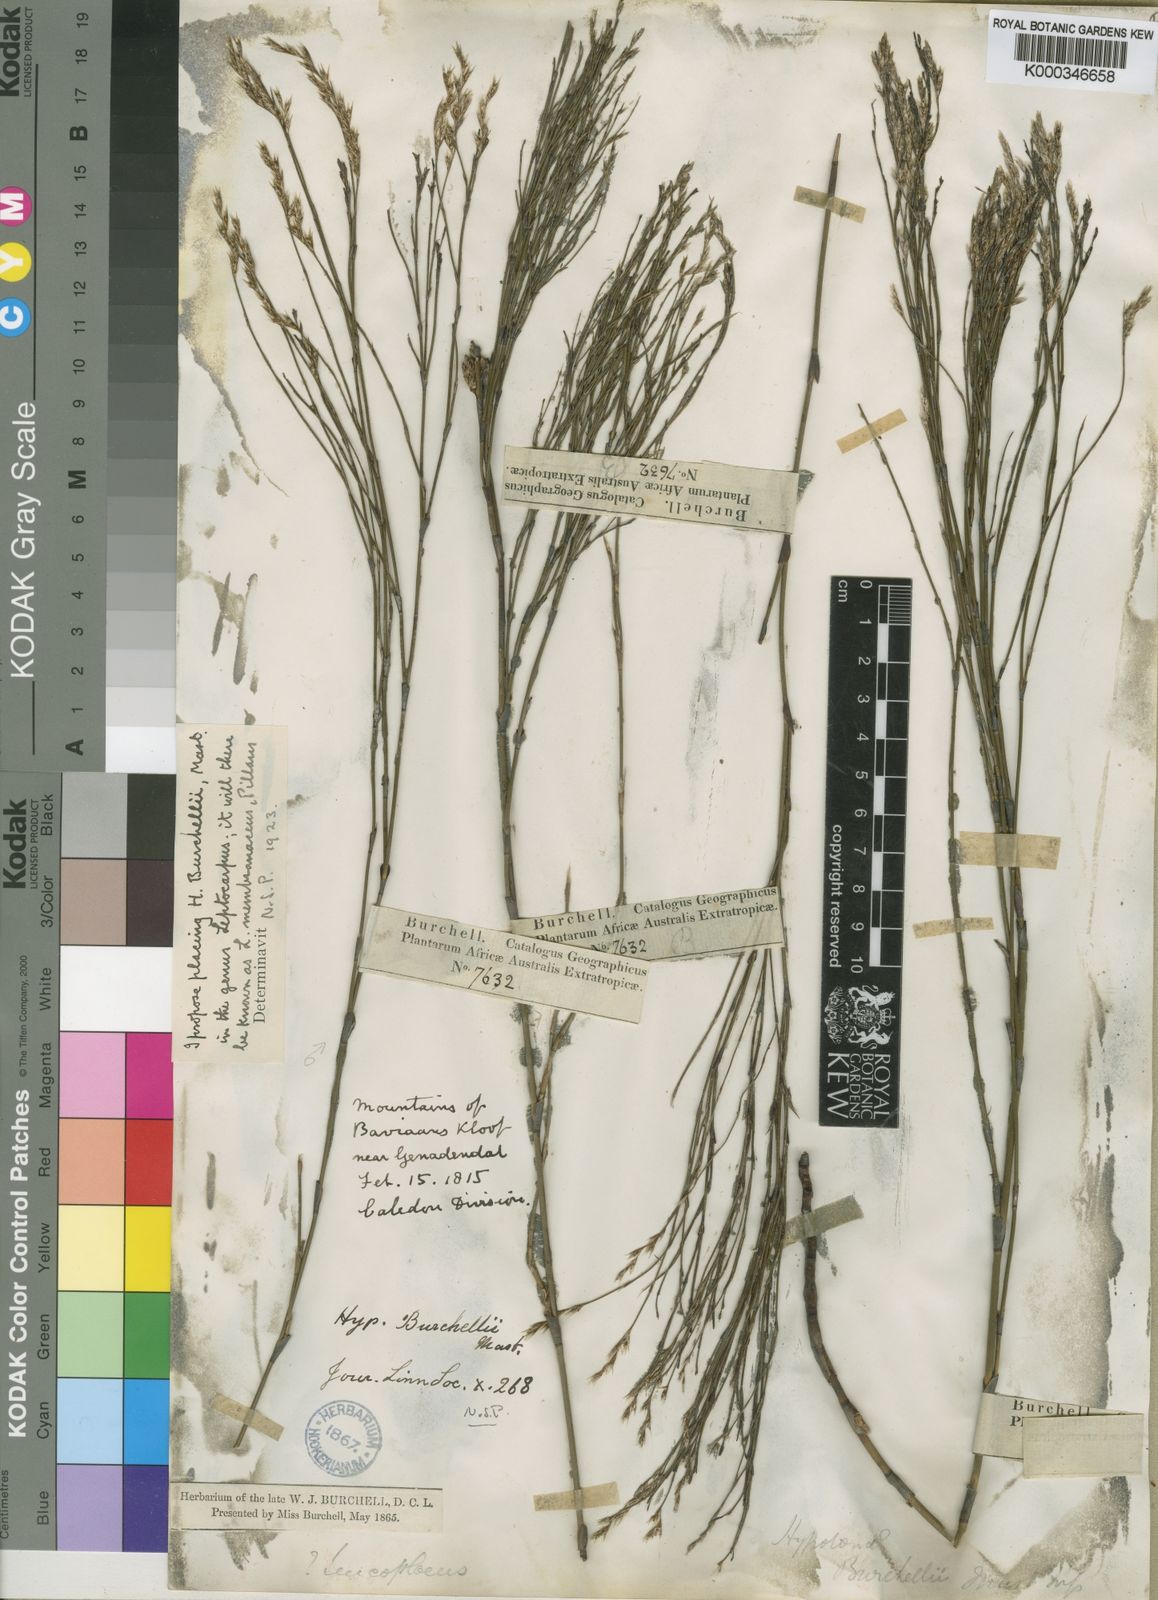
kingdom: Plantae
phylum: Tracheophyta
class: Liliopsida
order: Poales
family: Restionaceae
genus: Restio
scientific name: Restio parvispiculus
